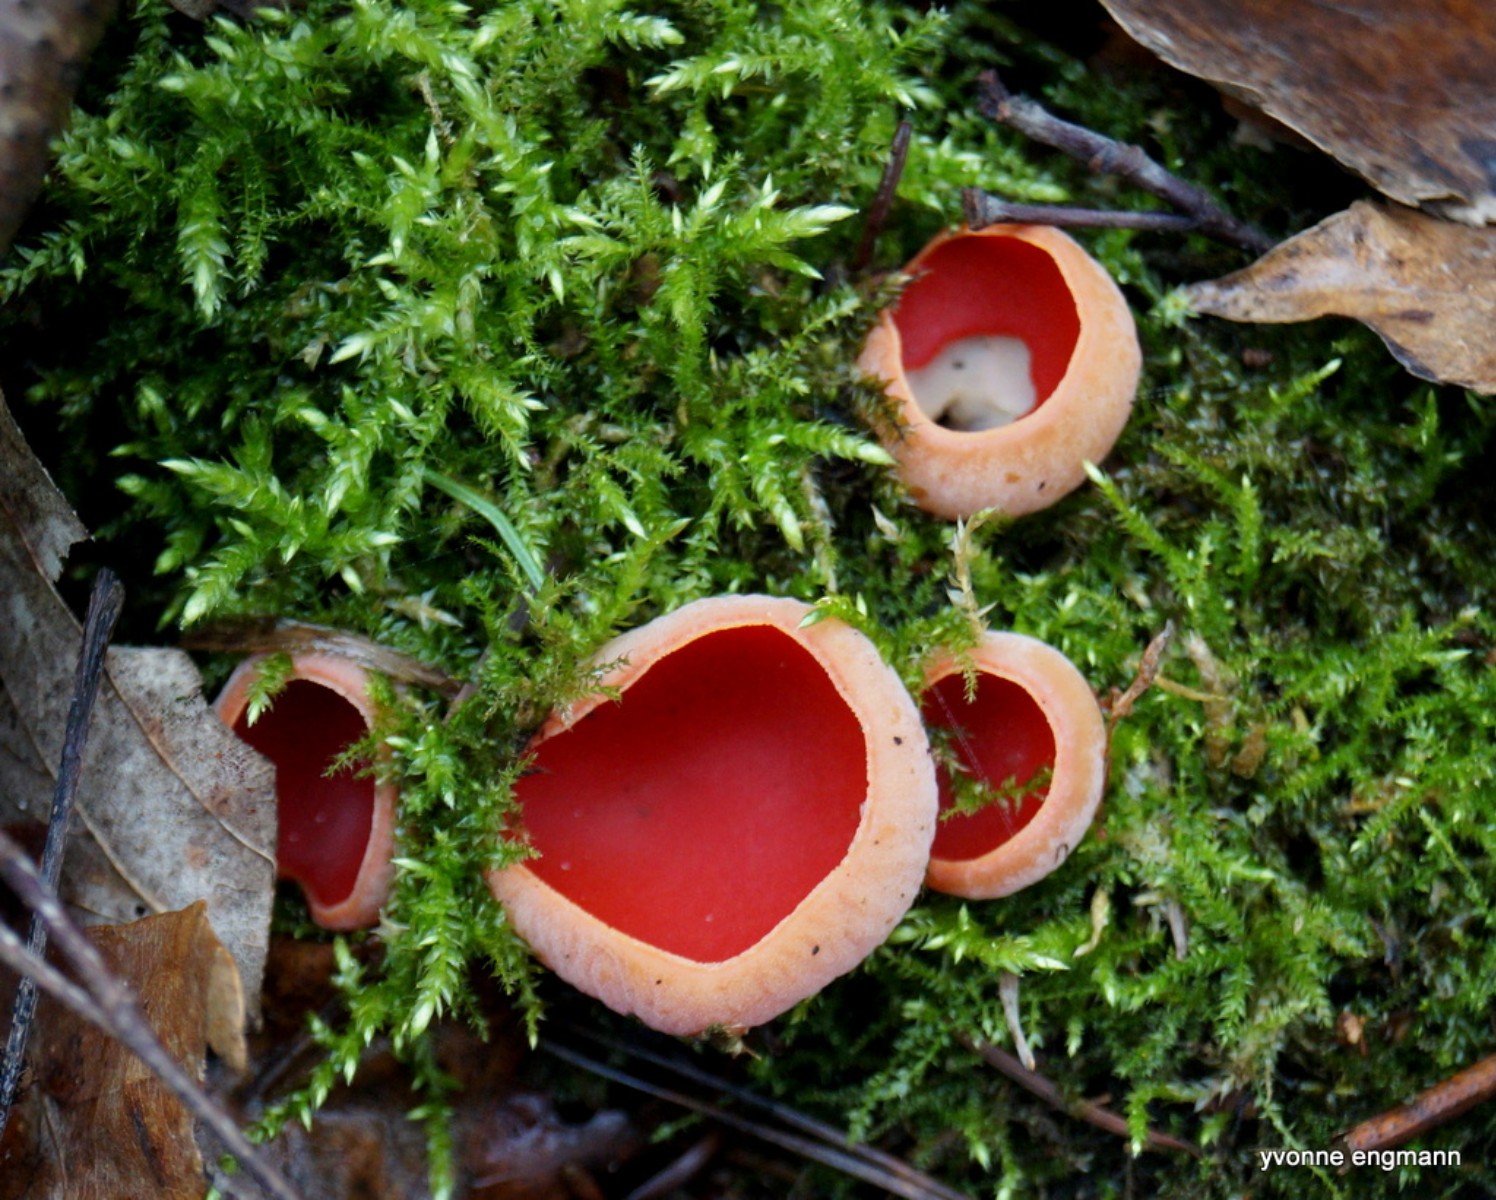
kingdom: Fungi
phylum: Ascomycota
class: Pezizomycetes
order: Pezizales
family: Sarcoscyphaceae
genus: Sarcoscypha
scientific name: Sarcoscypha austriaca
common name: krølhåret pragtbæger
